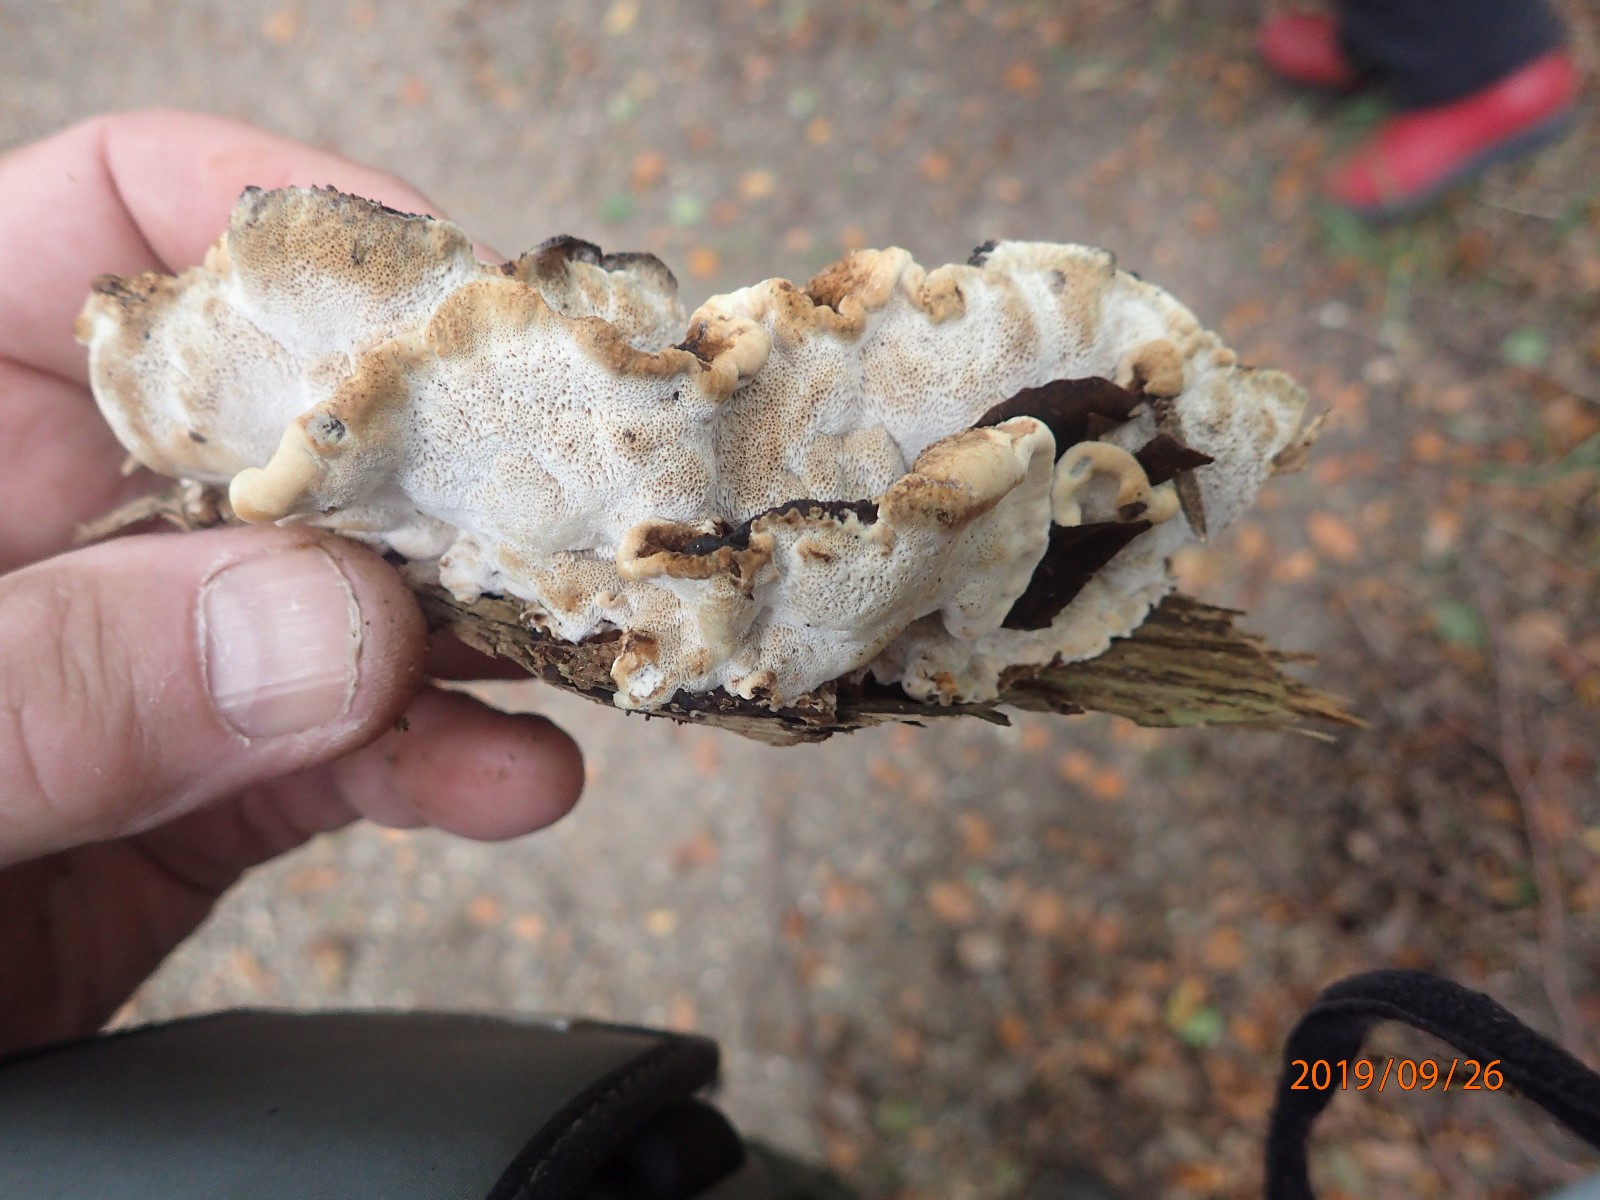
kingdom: Fungi
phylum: Basidiomycota
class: Agaricomycetes
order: Polyporales
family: Ischnodermataceae
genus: Ischnoderma
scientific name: Ischnoderma resinosum
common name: løv-tjæreporesvamp
